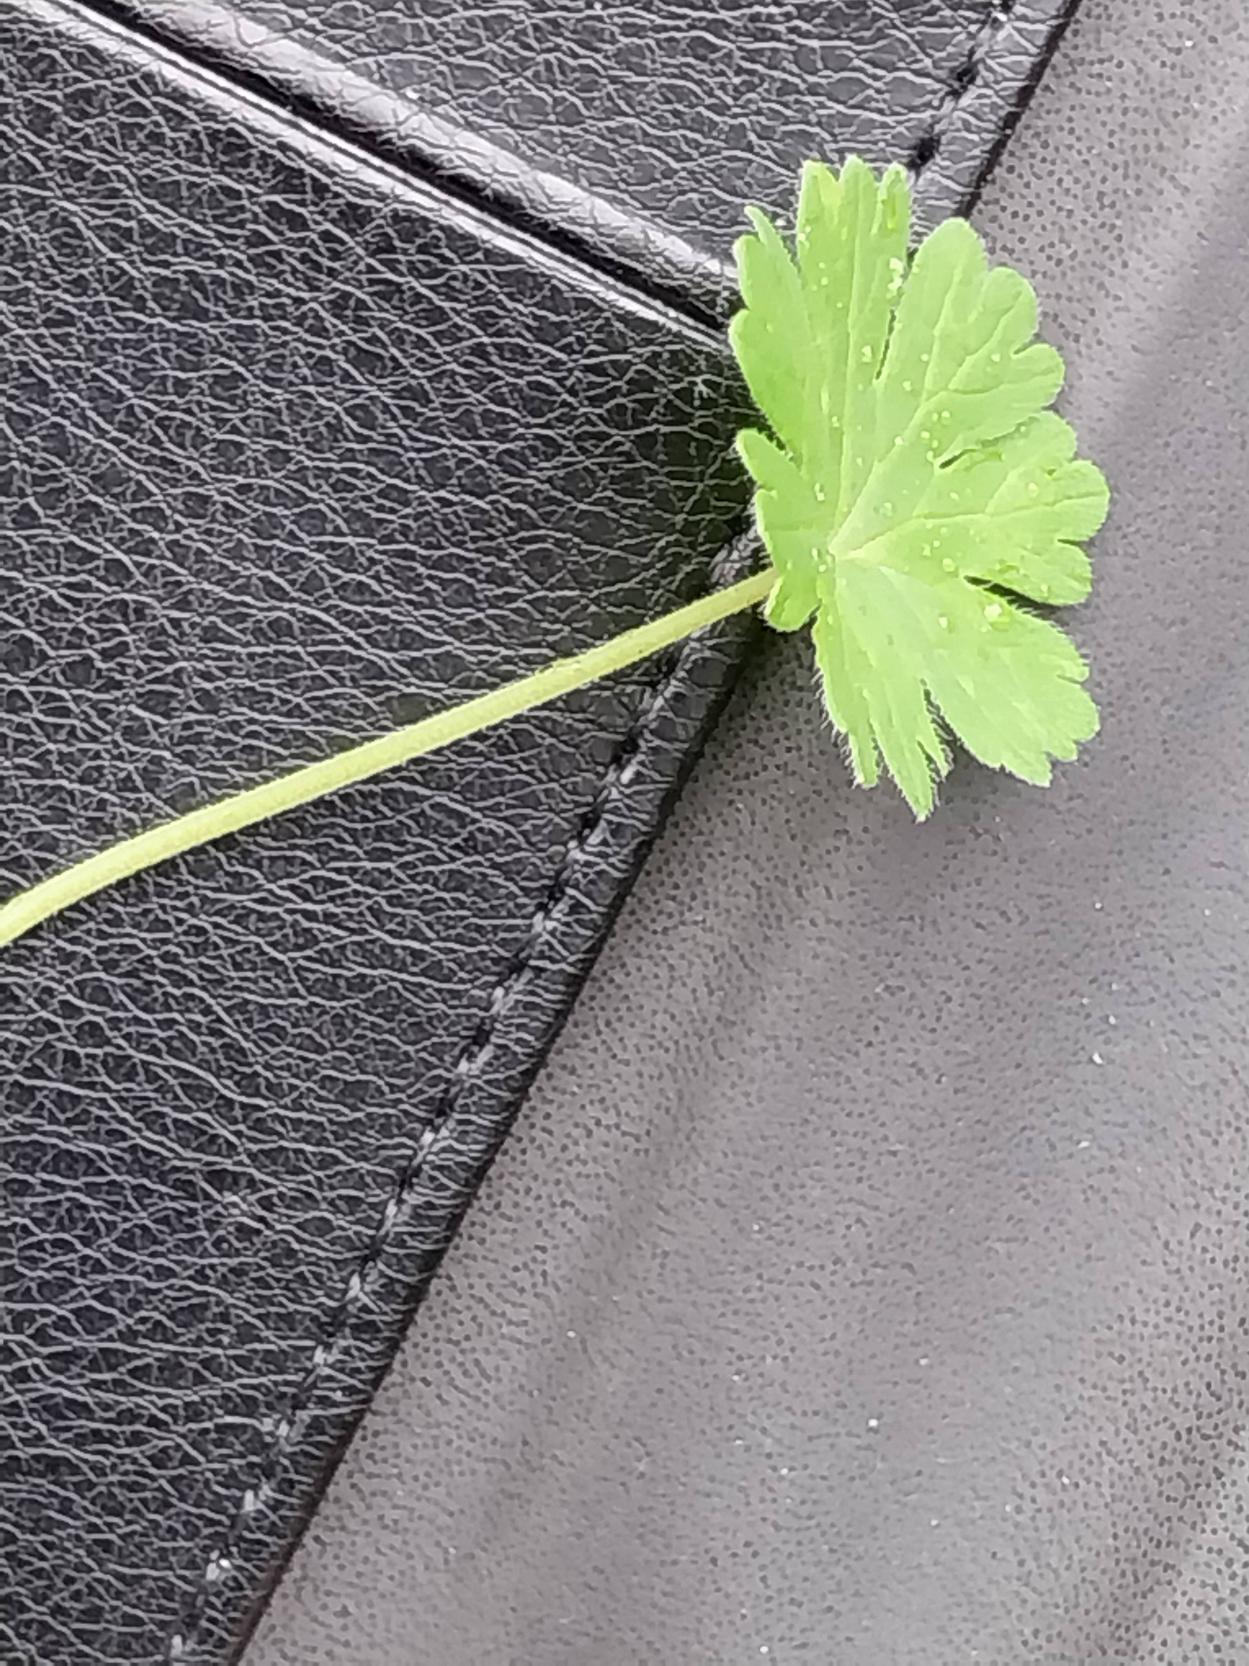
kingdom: Plantae
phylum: Tracheophyta
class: Magnoliopsida
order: Geraniales
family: Geraniaceae
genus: Geranium
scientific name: Geranium pusillum
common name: Liden storkenæb
